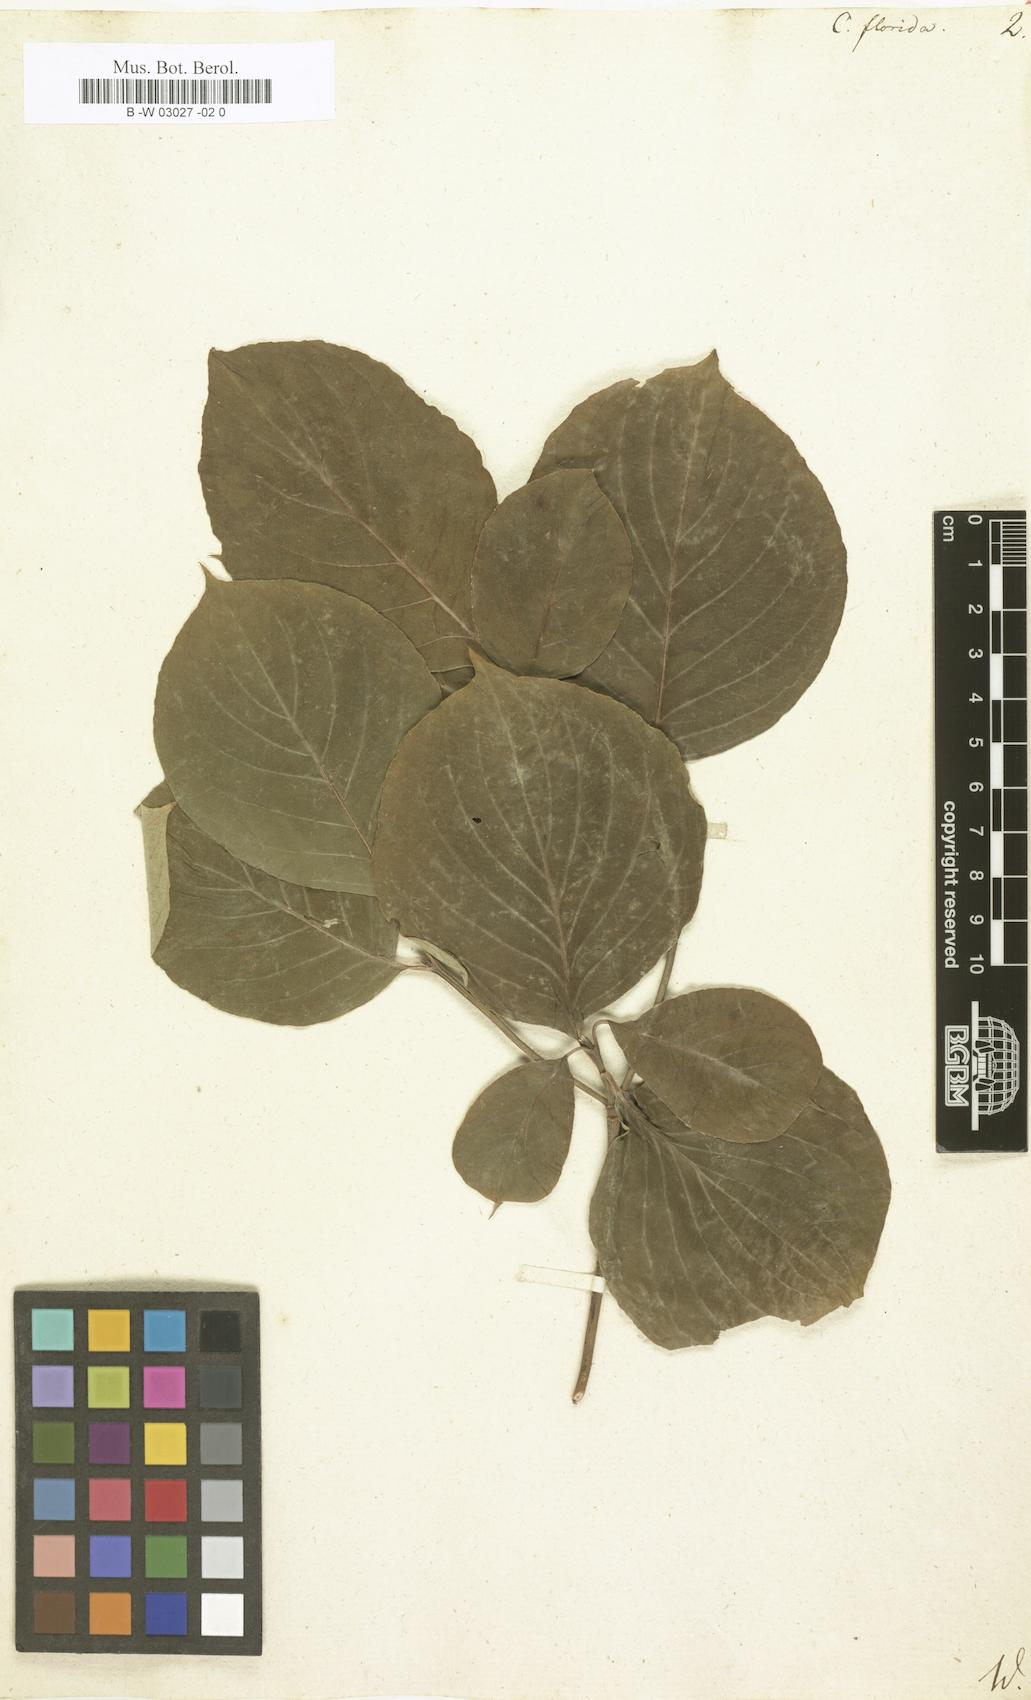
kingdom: Plantae
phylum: Tracheophyta
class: Magnoliopsida
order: Cornales
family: Cornaceae
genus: Cornus
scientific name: Cornus florida
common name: Flowering dogwood
